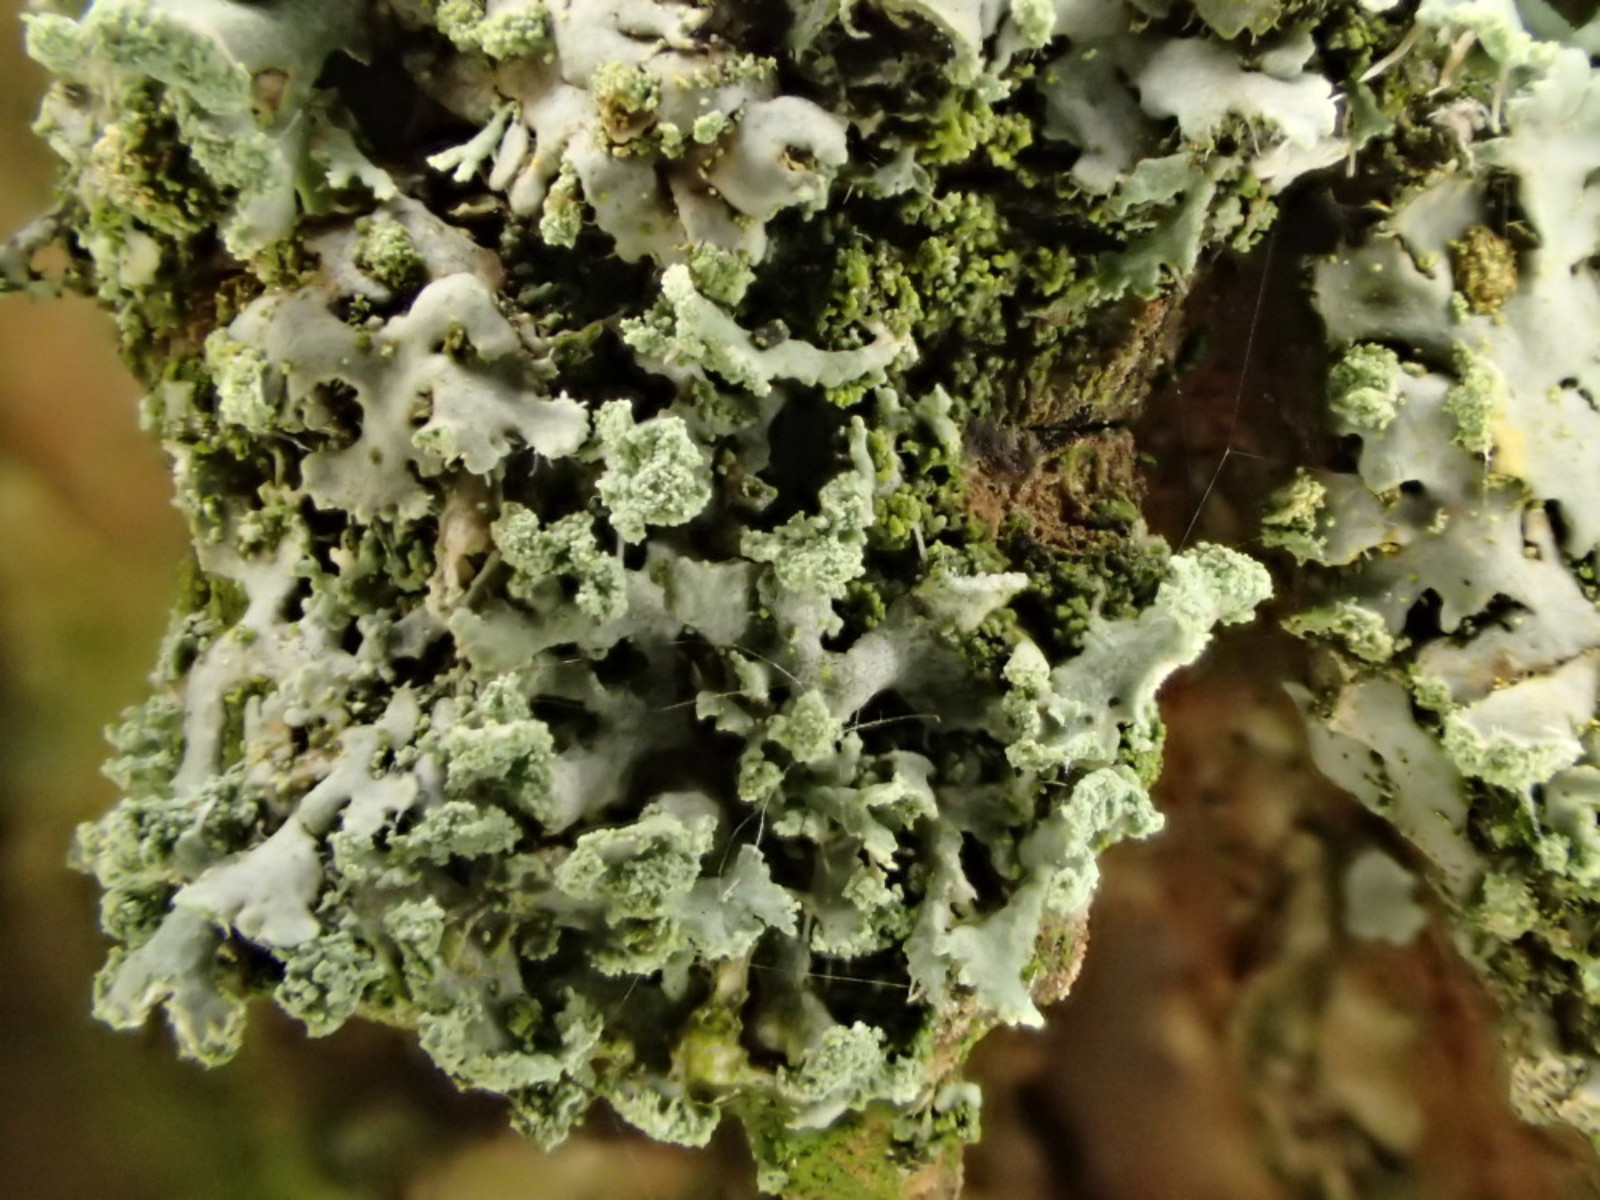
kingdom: Fungi
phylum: Ascomycota
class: Lecanoromycetes
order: Caliciales
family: Physciaceae
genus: Physcia
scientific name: Physcia tenella
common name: spæd rosetlav
